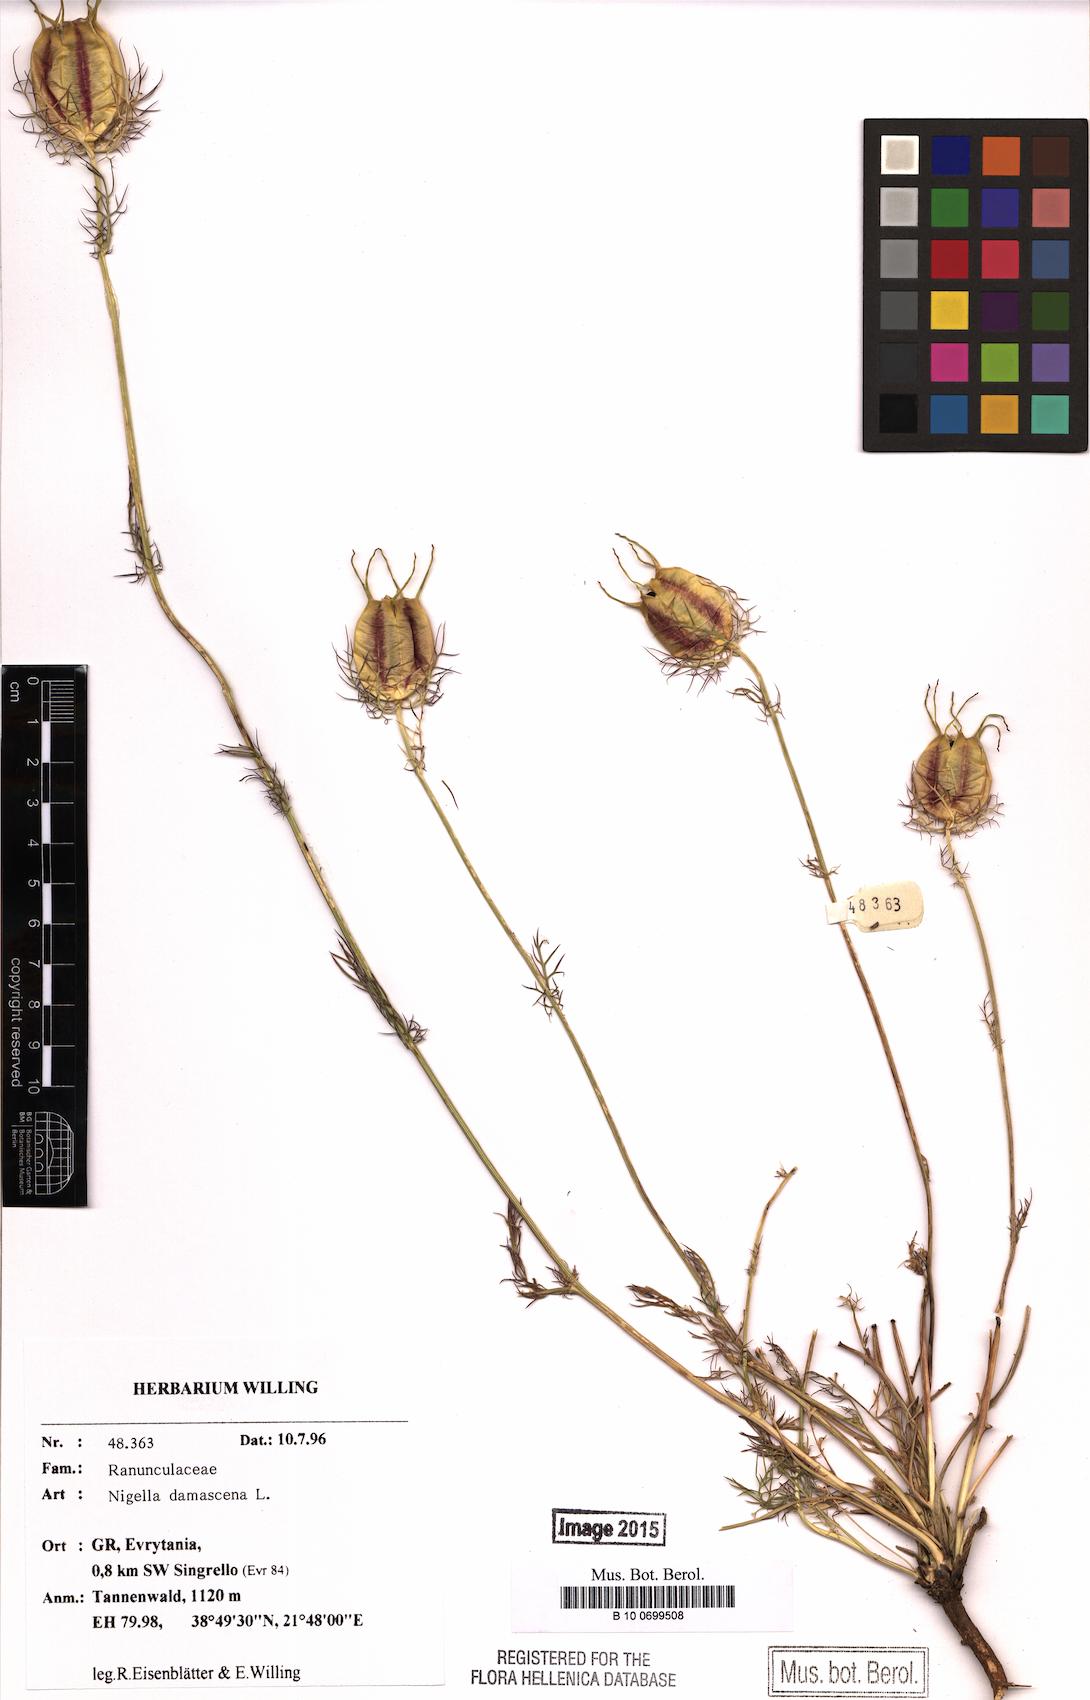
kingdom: Plantae
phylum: Tracheophyta
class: Magnoliopsida
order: Ranunculales
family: Ranunculaceae
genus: Nigella
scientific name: Nigella damascena
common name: Love-in-a-mist
